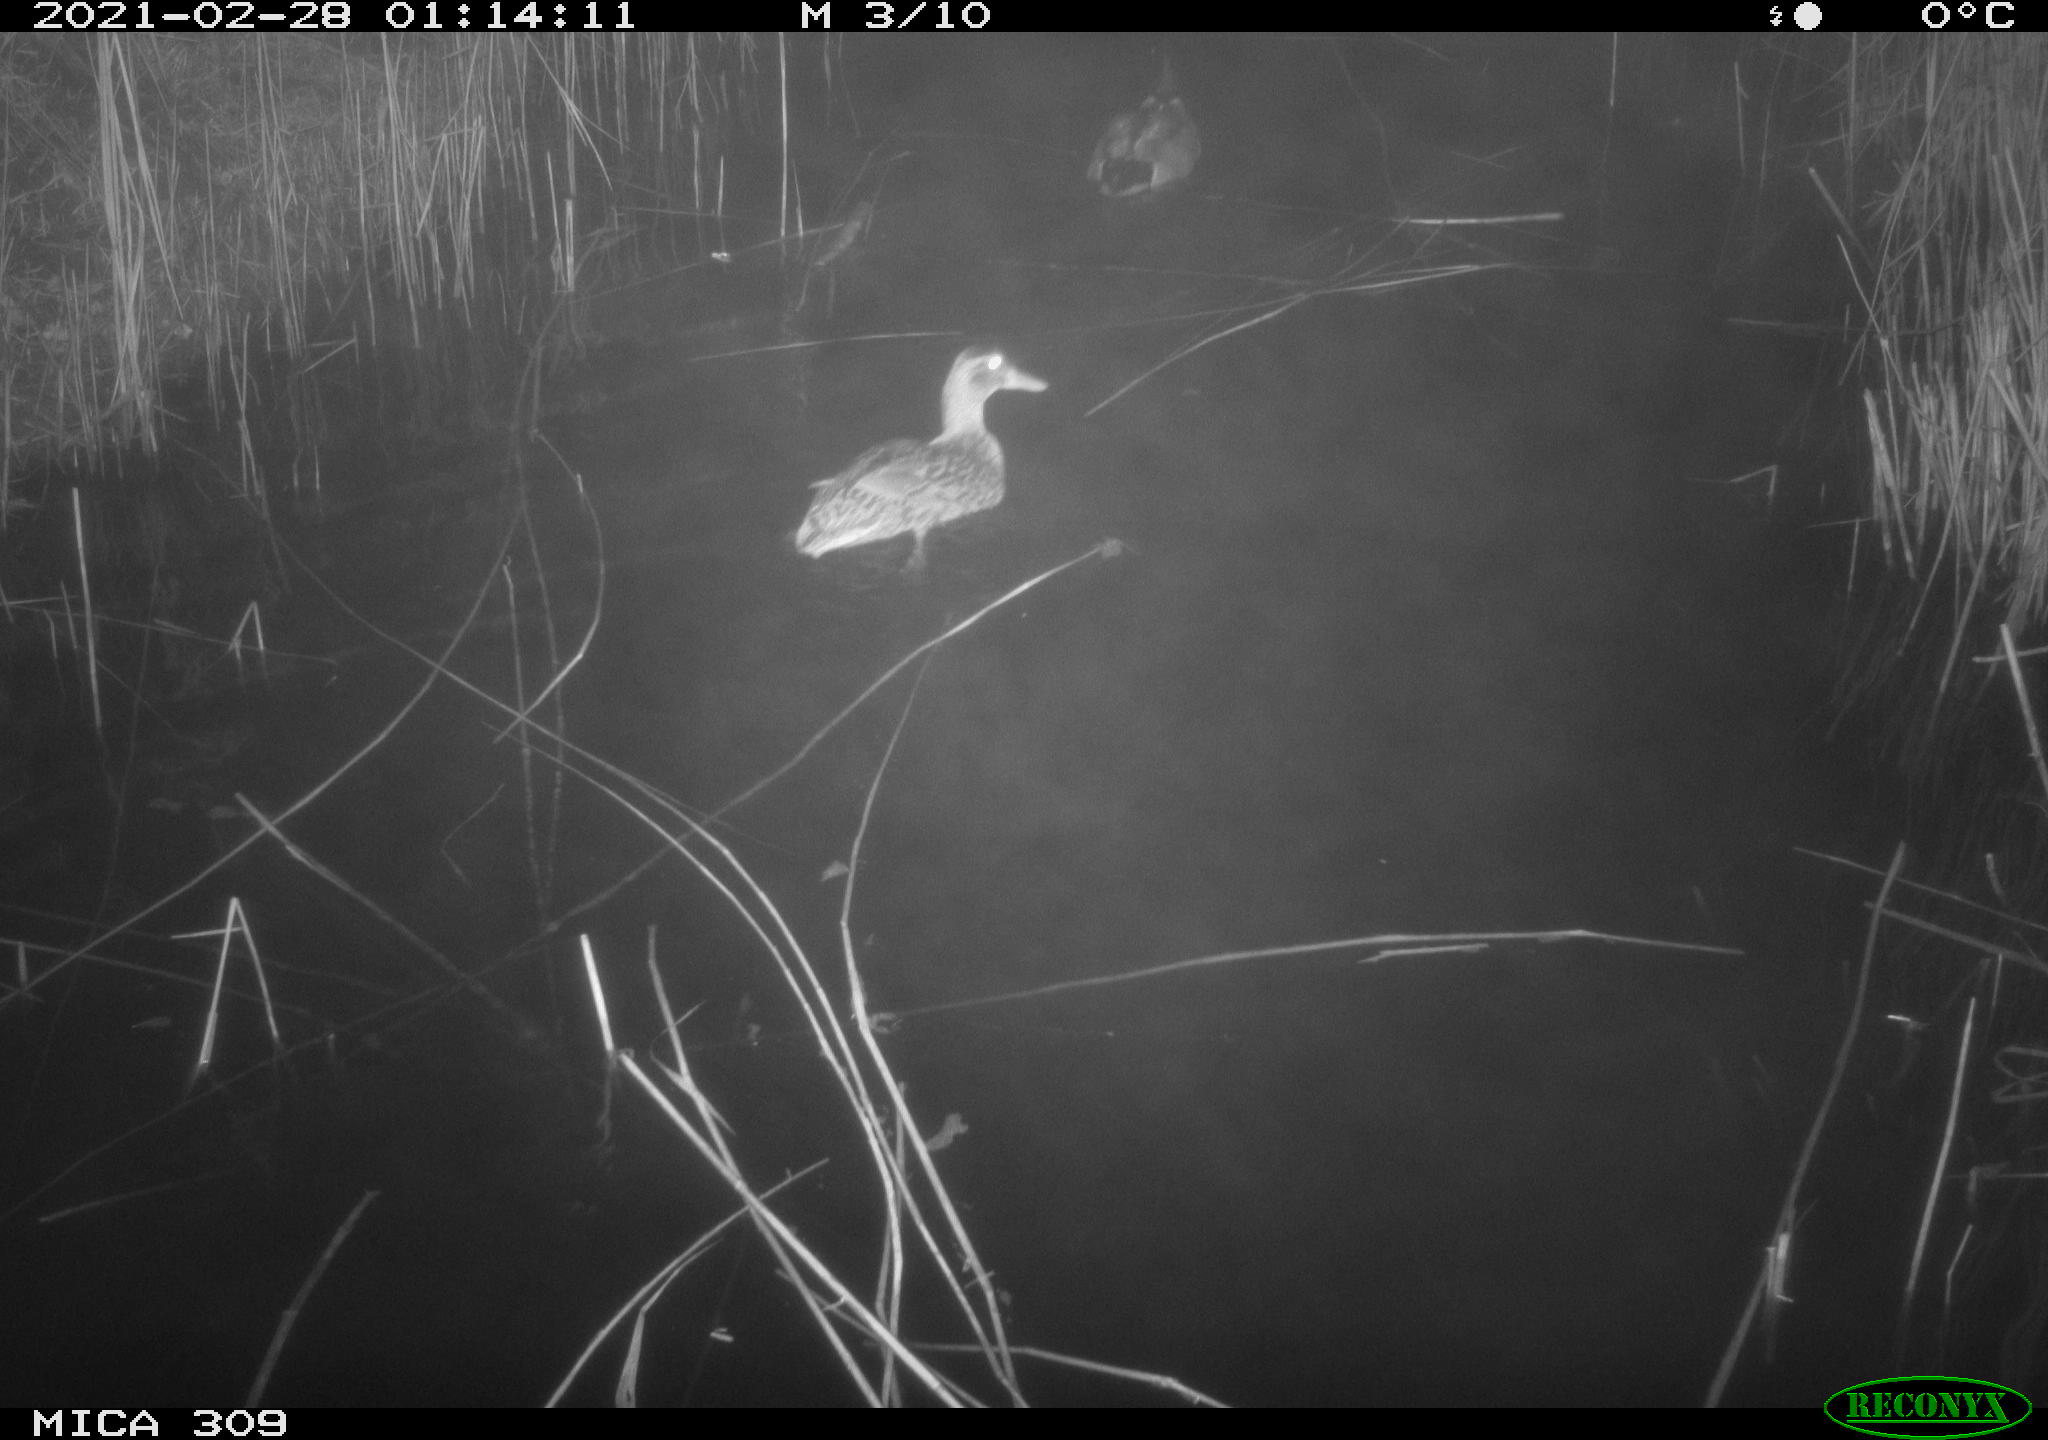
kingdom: Animalia
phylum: Chordata
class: Aves
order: Anseriformes
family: Anatidae
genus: Anas
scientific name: Anas platyrhynchos
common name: Mallard
